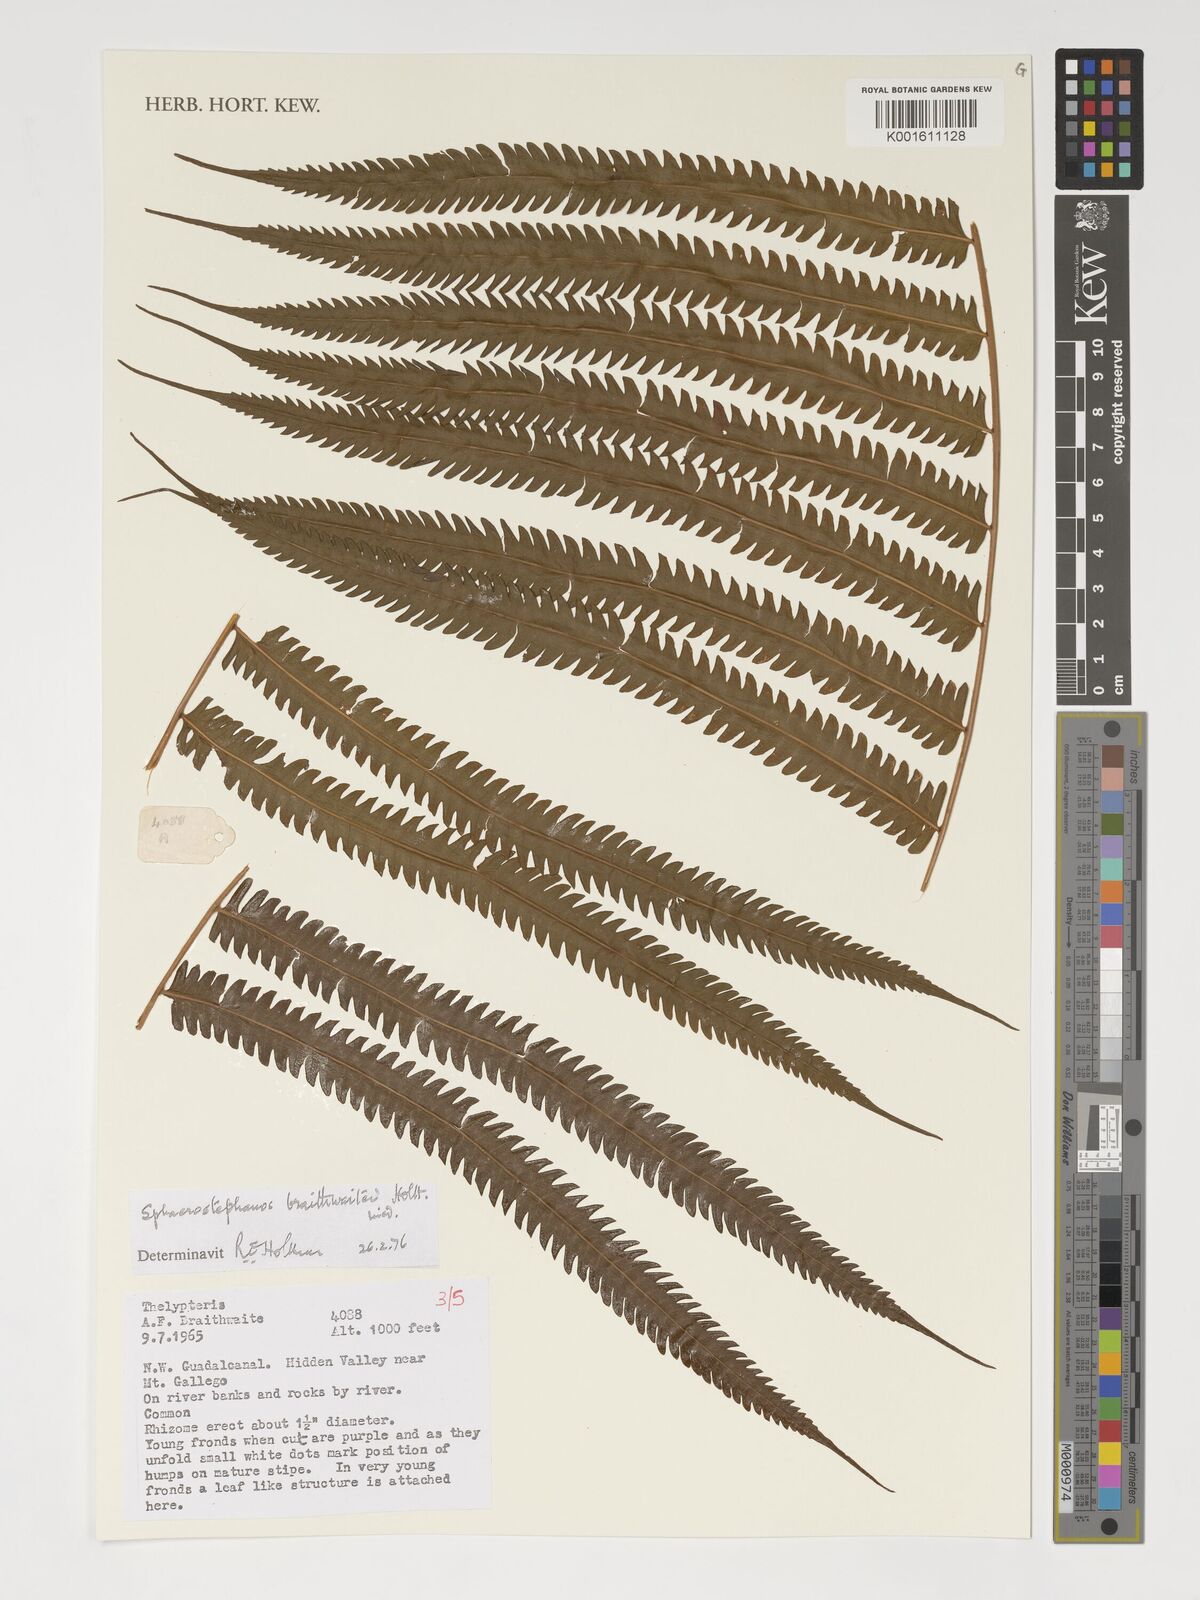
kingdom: Plantae
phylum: Tracheophyta
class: Polypodiopsida
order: Polypodiales
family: Thelypteridaceae
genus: Sphaerostephanos
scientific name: Sphaerostephanos braithwaitei
